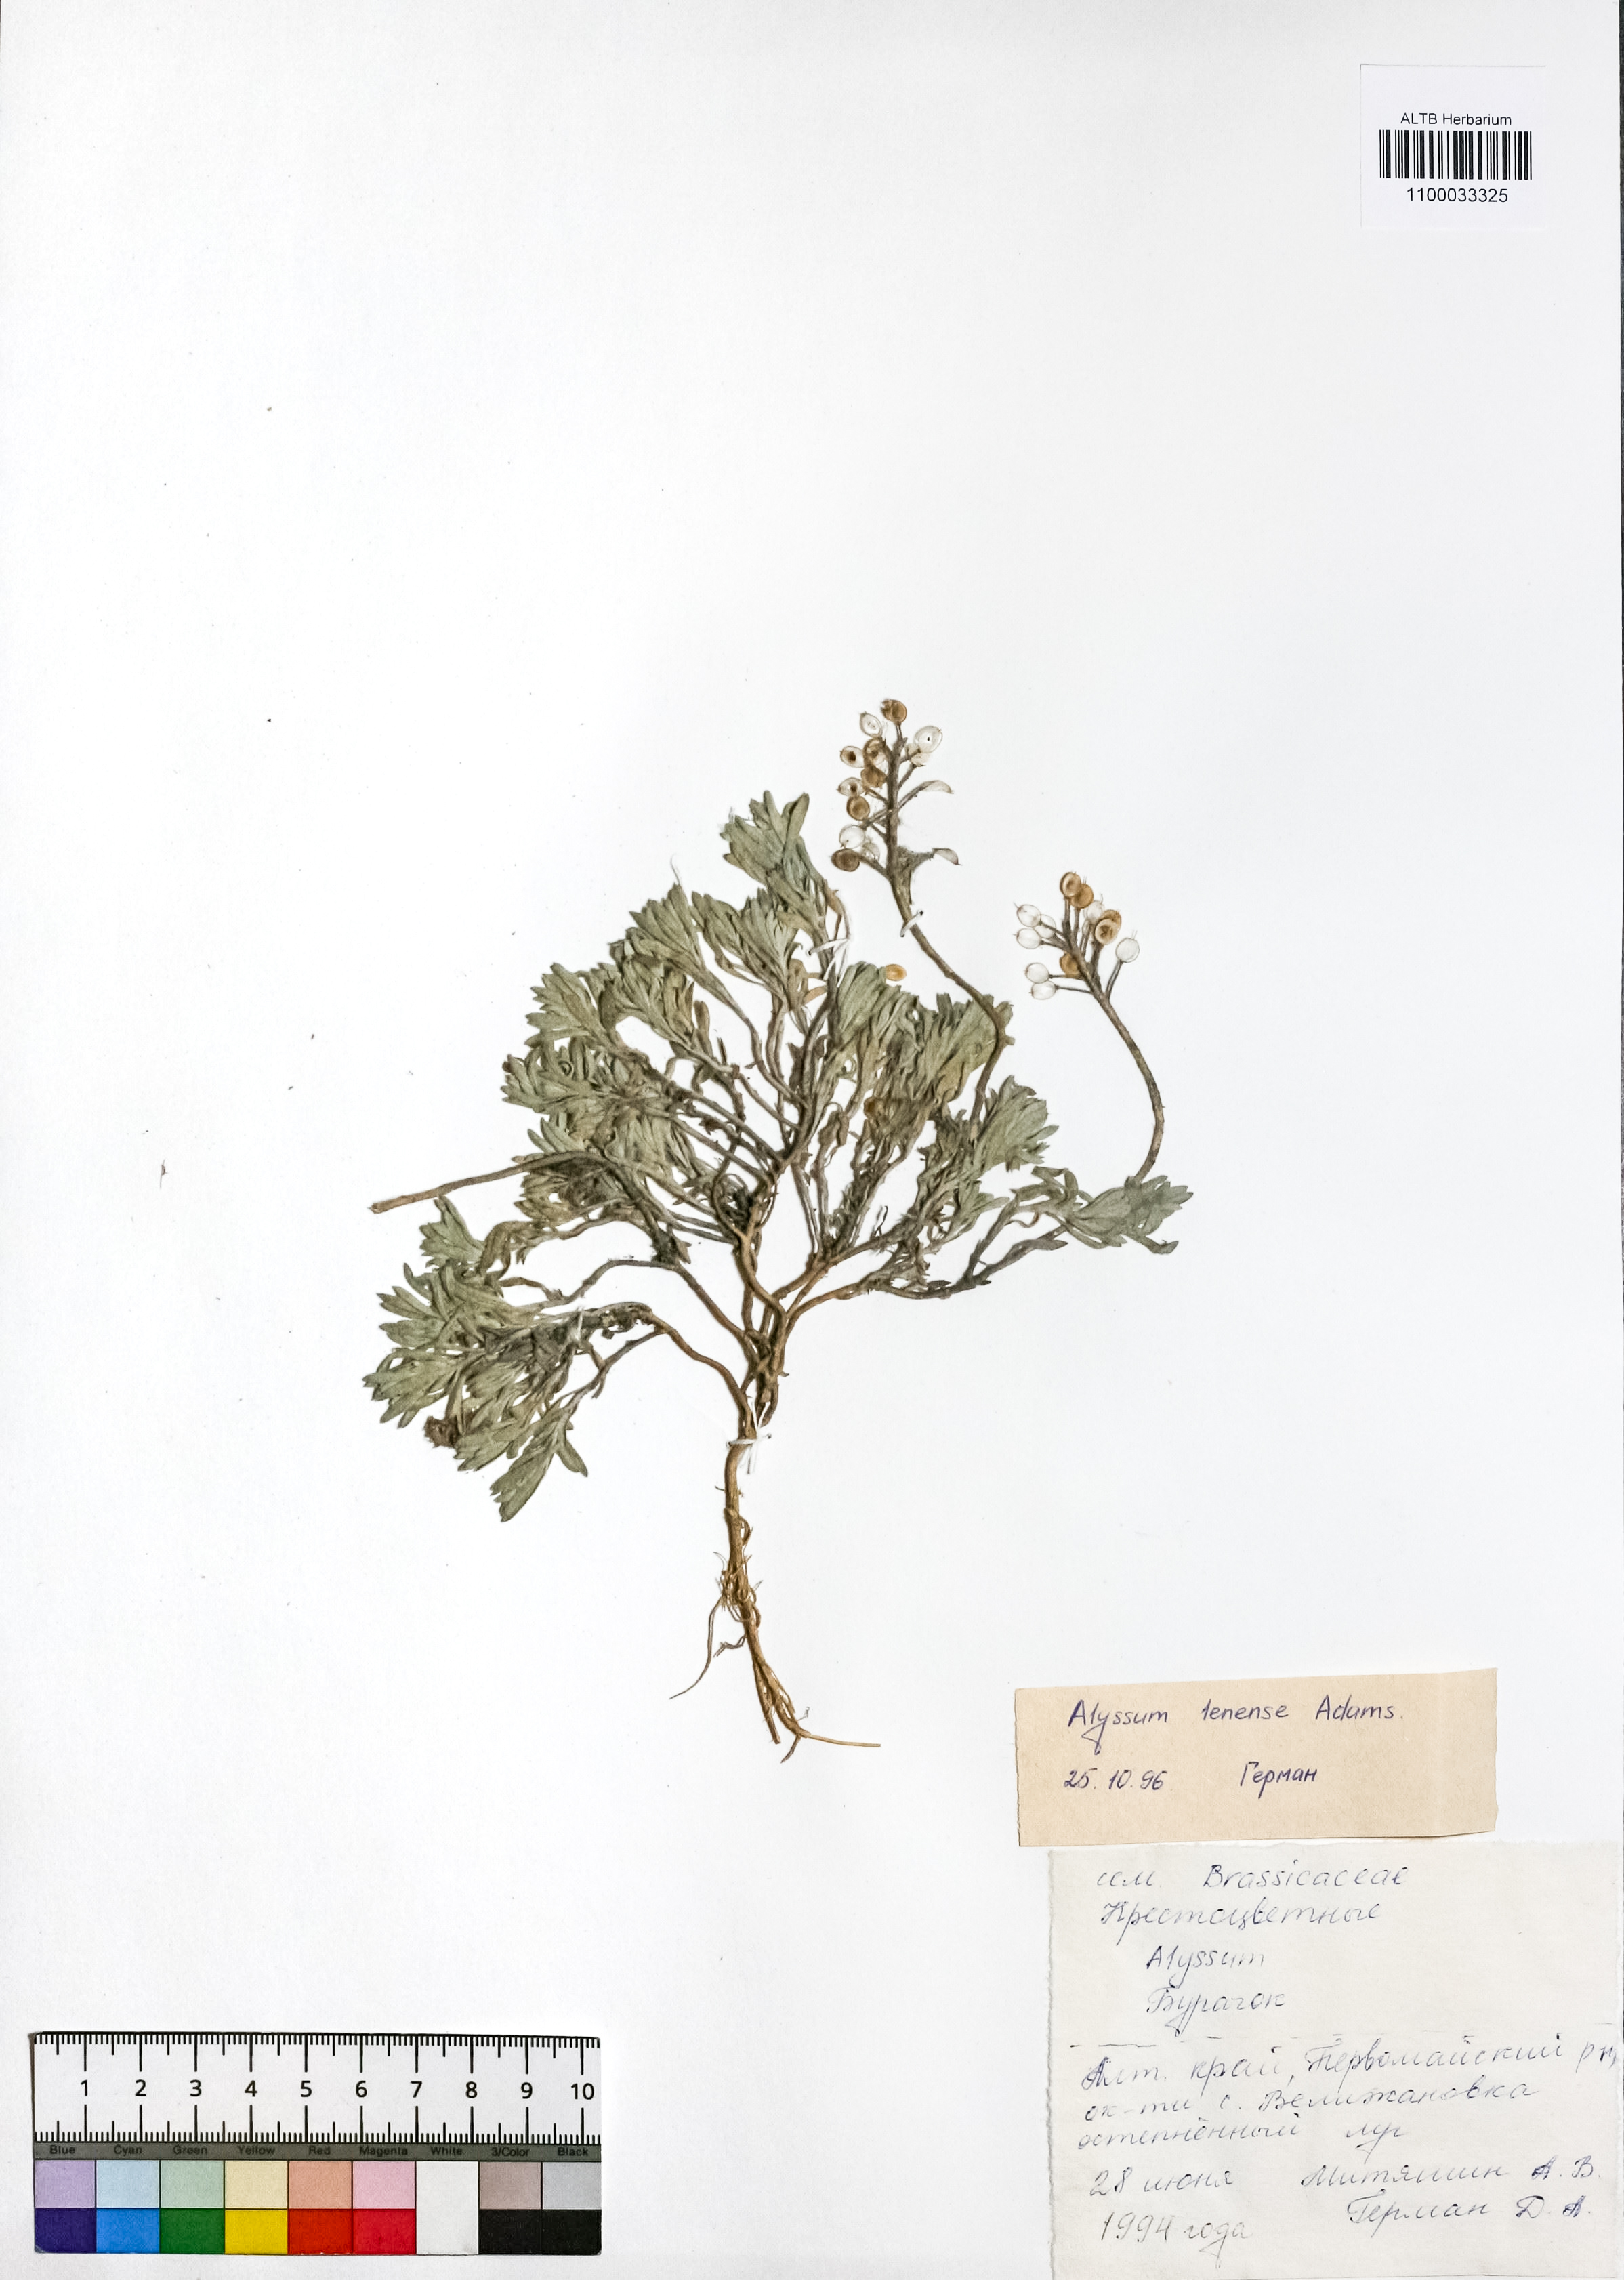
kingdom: Plantae
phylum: Tracheophyta
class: Magnoliopsida
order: Brassicales
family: Brassicaceae
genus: Alyssum
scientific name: Alyssum lenense
